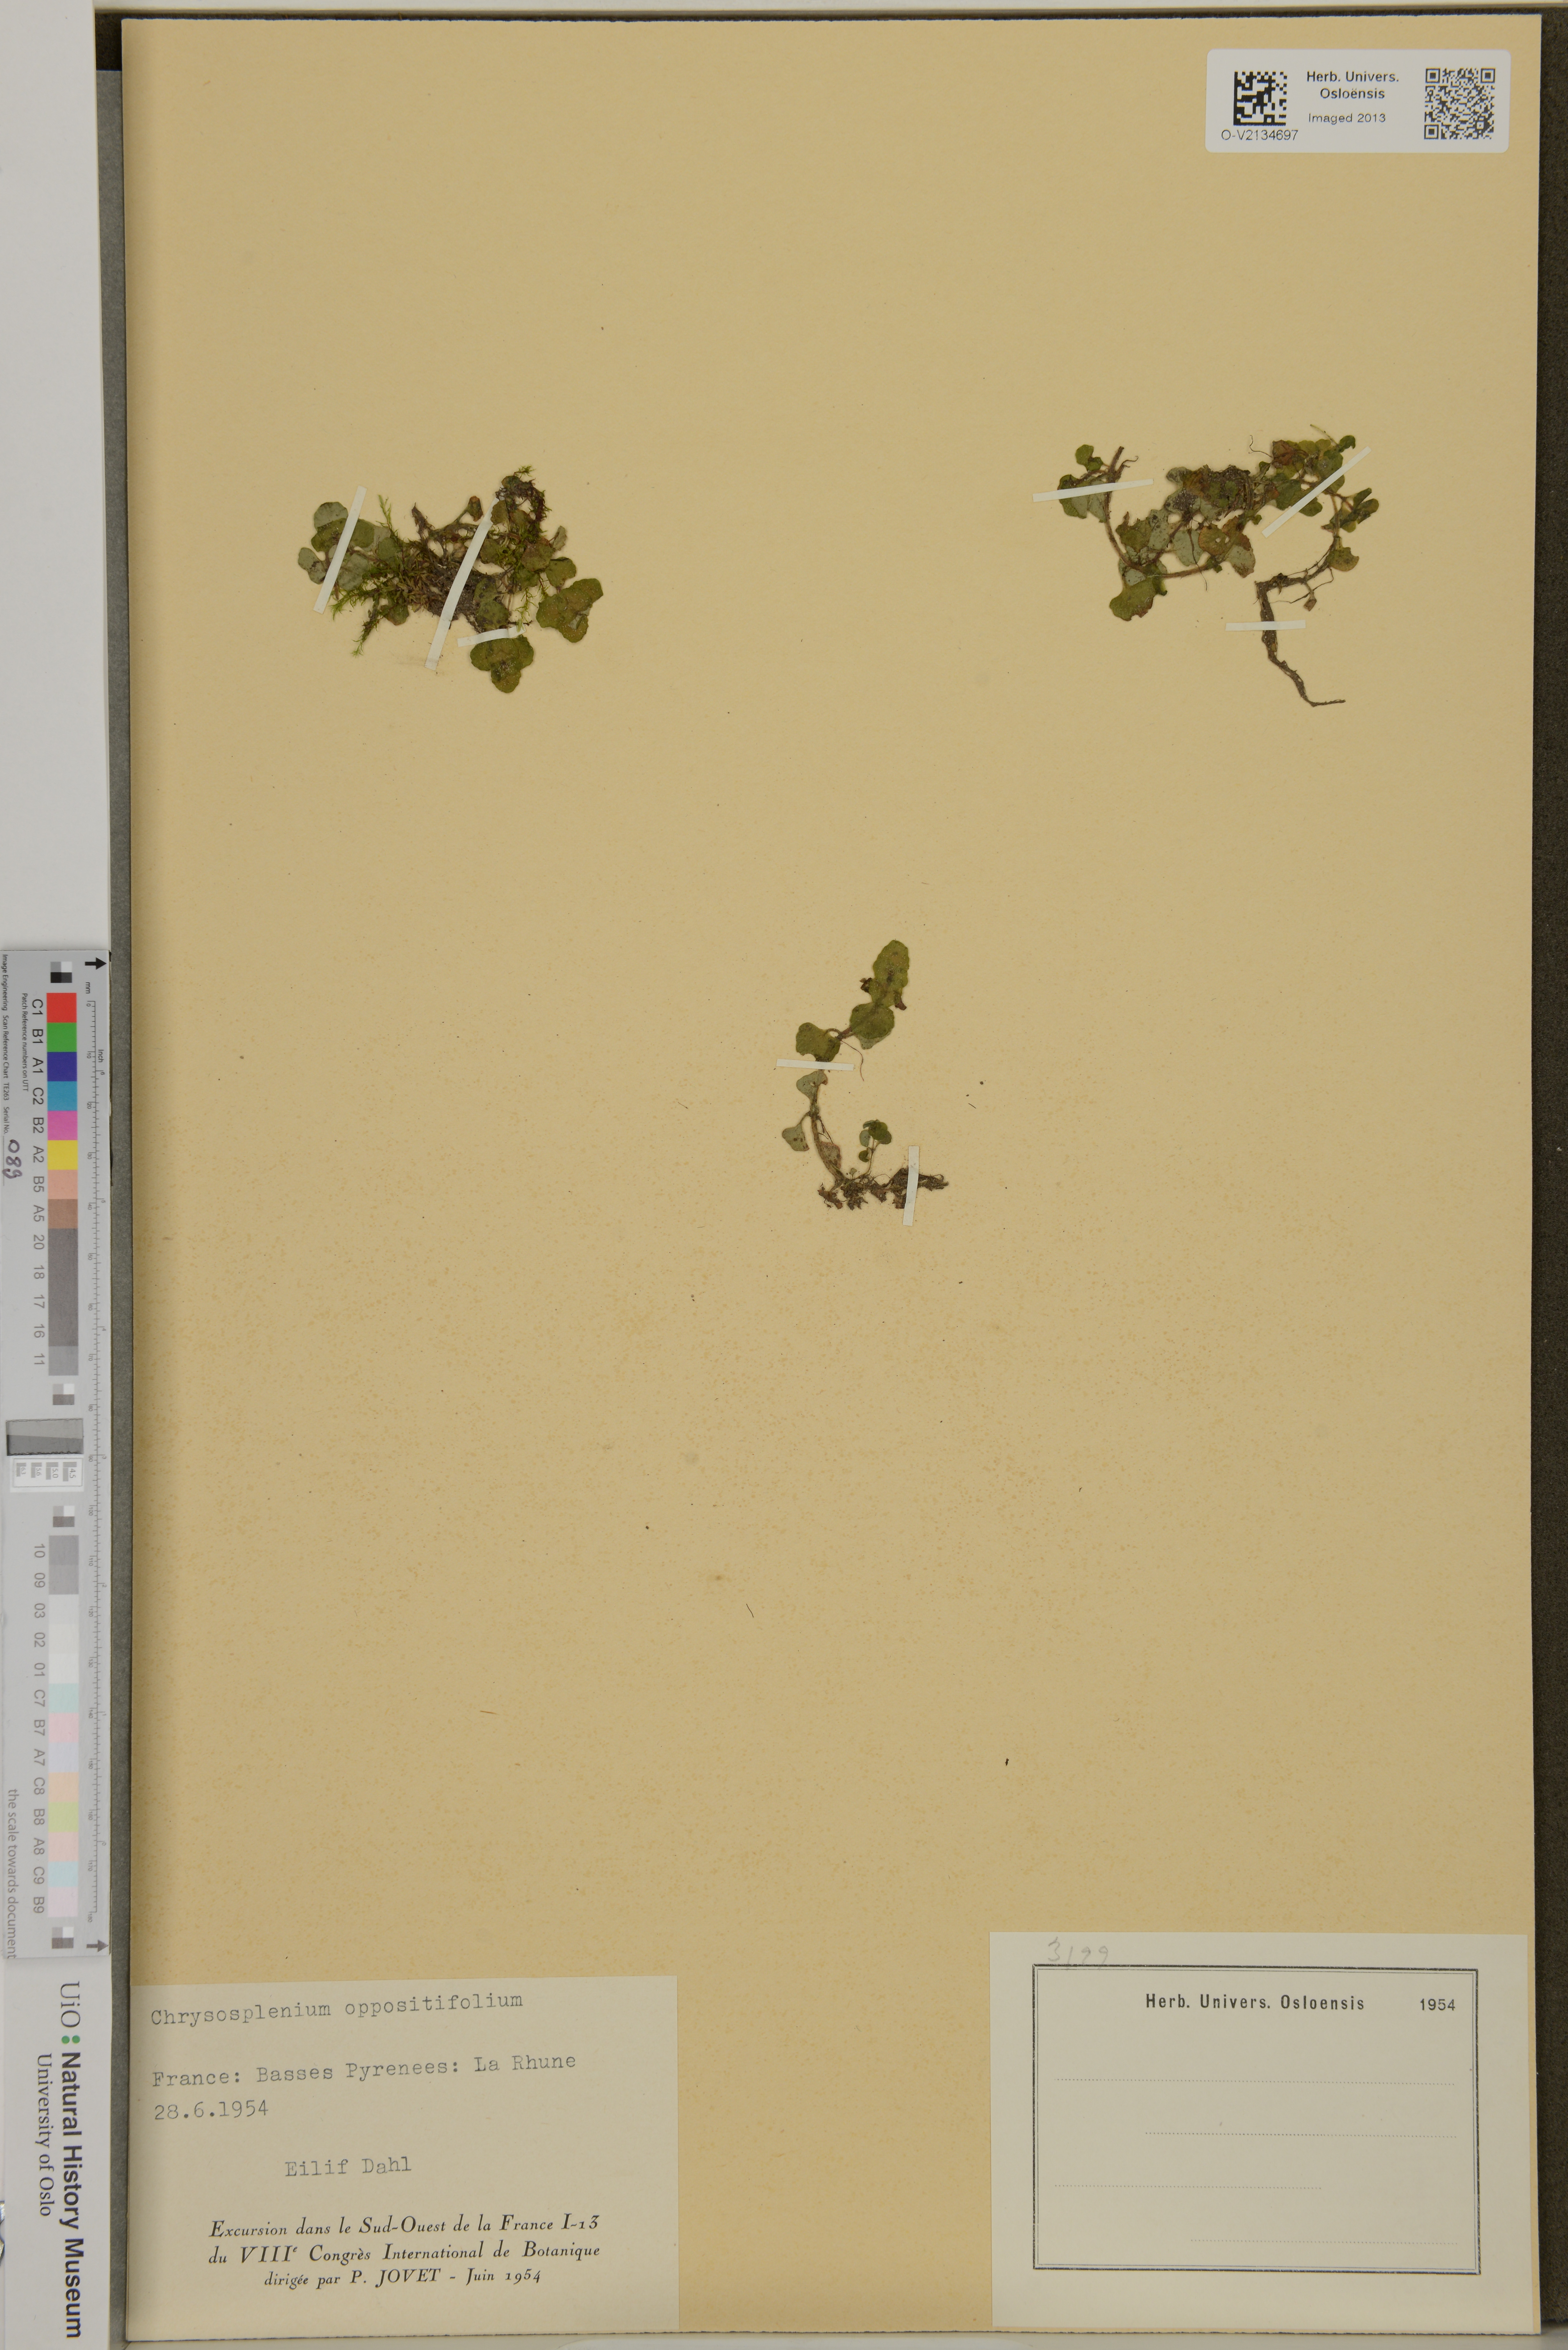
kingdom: Plantae
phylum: Tracheophyta
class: Magnoliopsida
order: Saxifragales
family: Saxifragaceae
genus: Chrysosplenium
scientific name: Chrysosplenium oppositifolium
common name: Opposite-leaved golden-saxifrage
